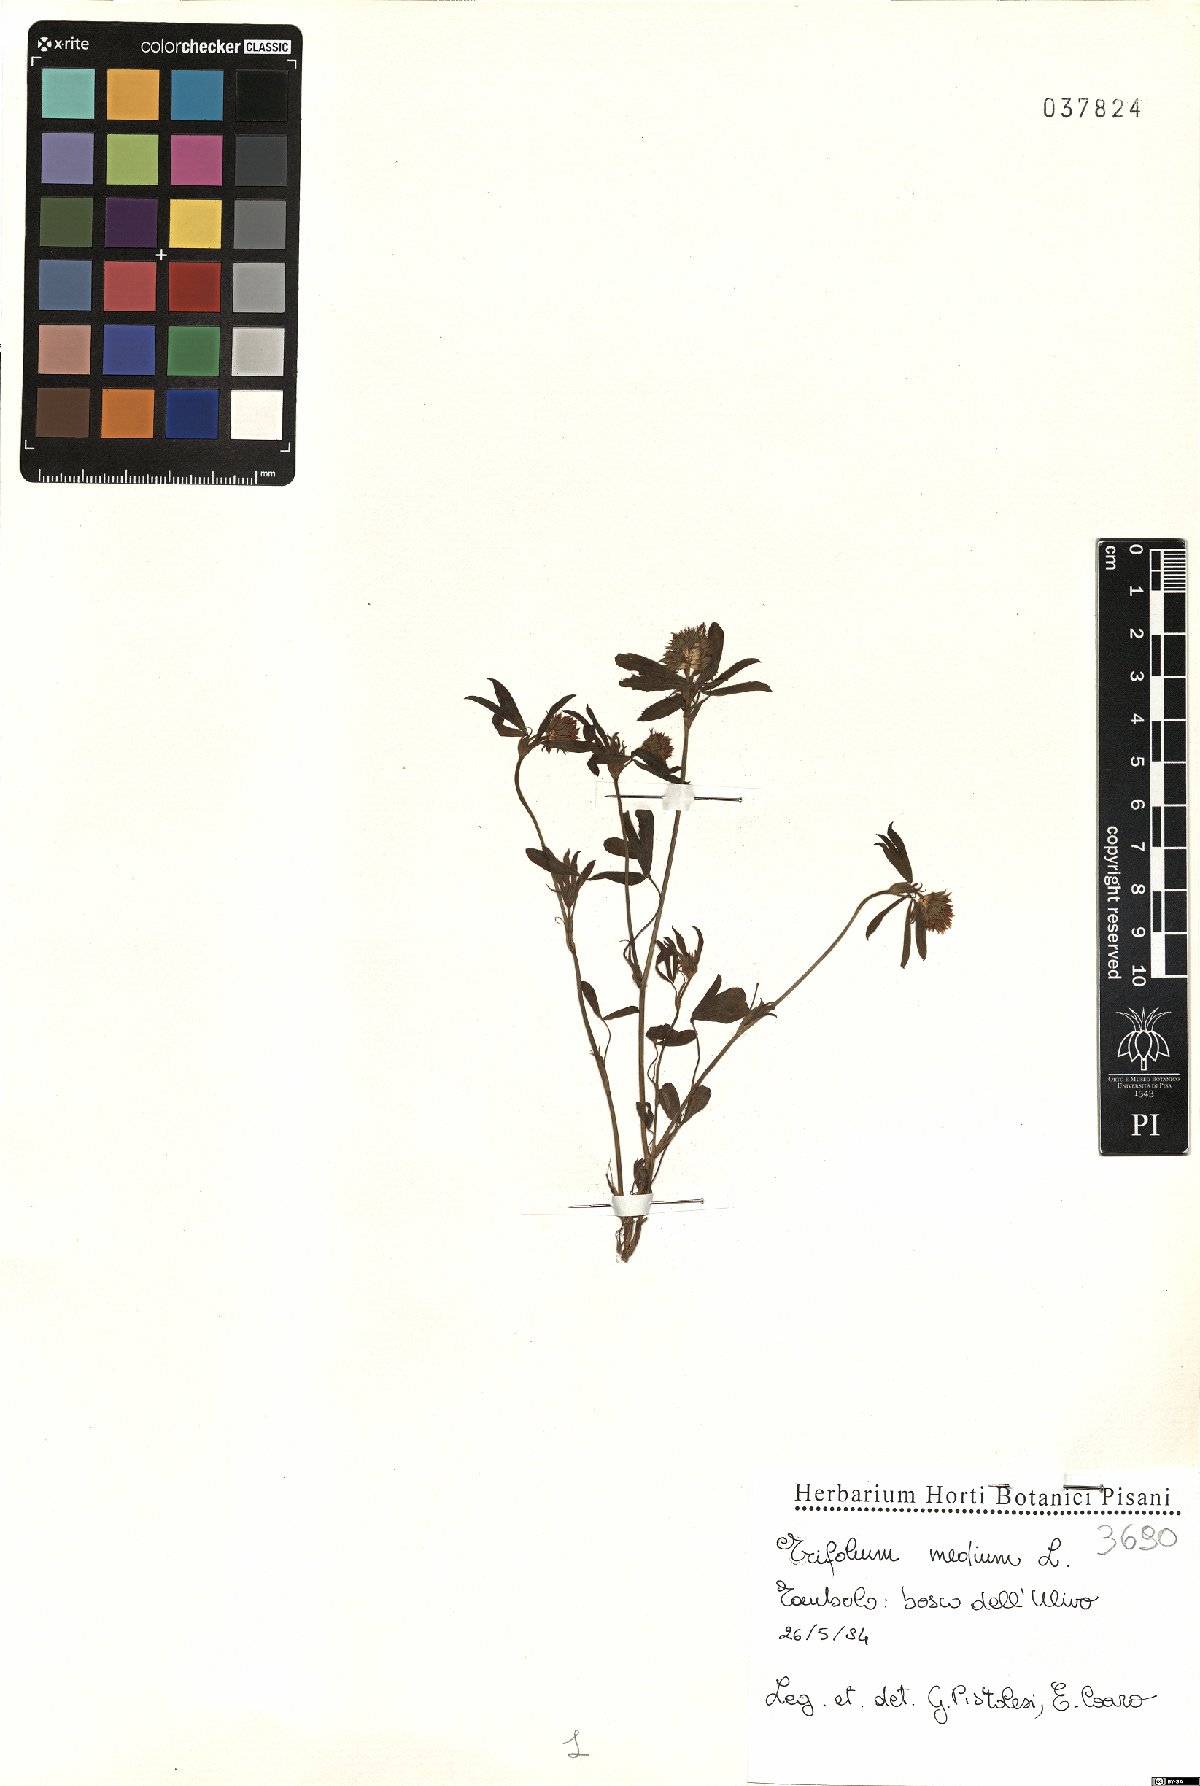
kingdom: Plantae
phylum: Tracheophyta
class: Magnoliopsida
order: Fabales
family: Fabaceae
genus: Trifolium
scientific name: Trifolium medium
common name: Zigzag clover
